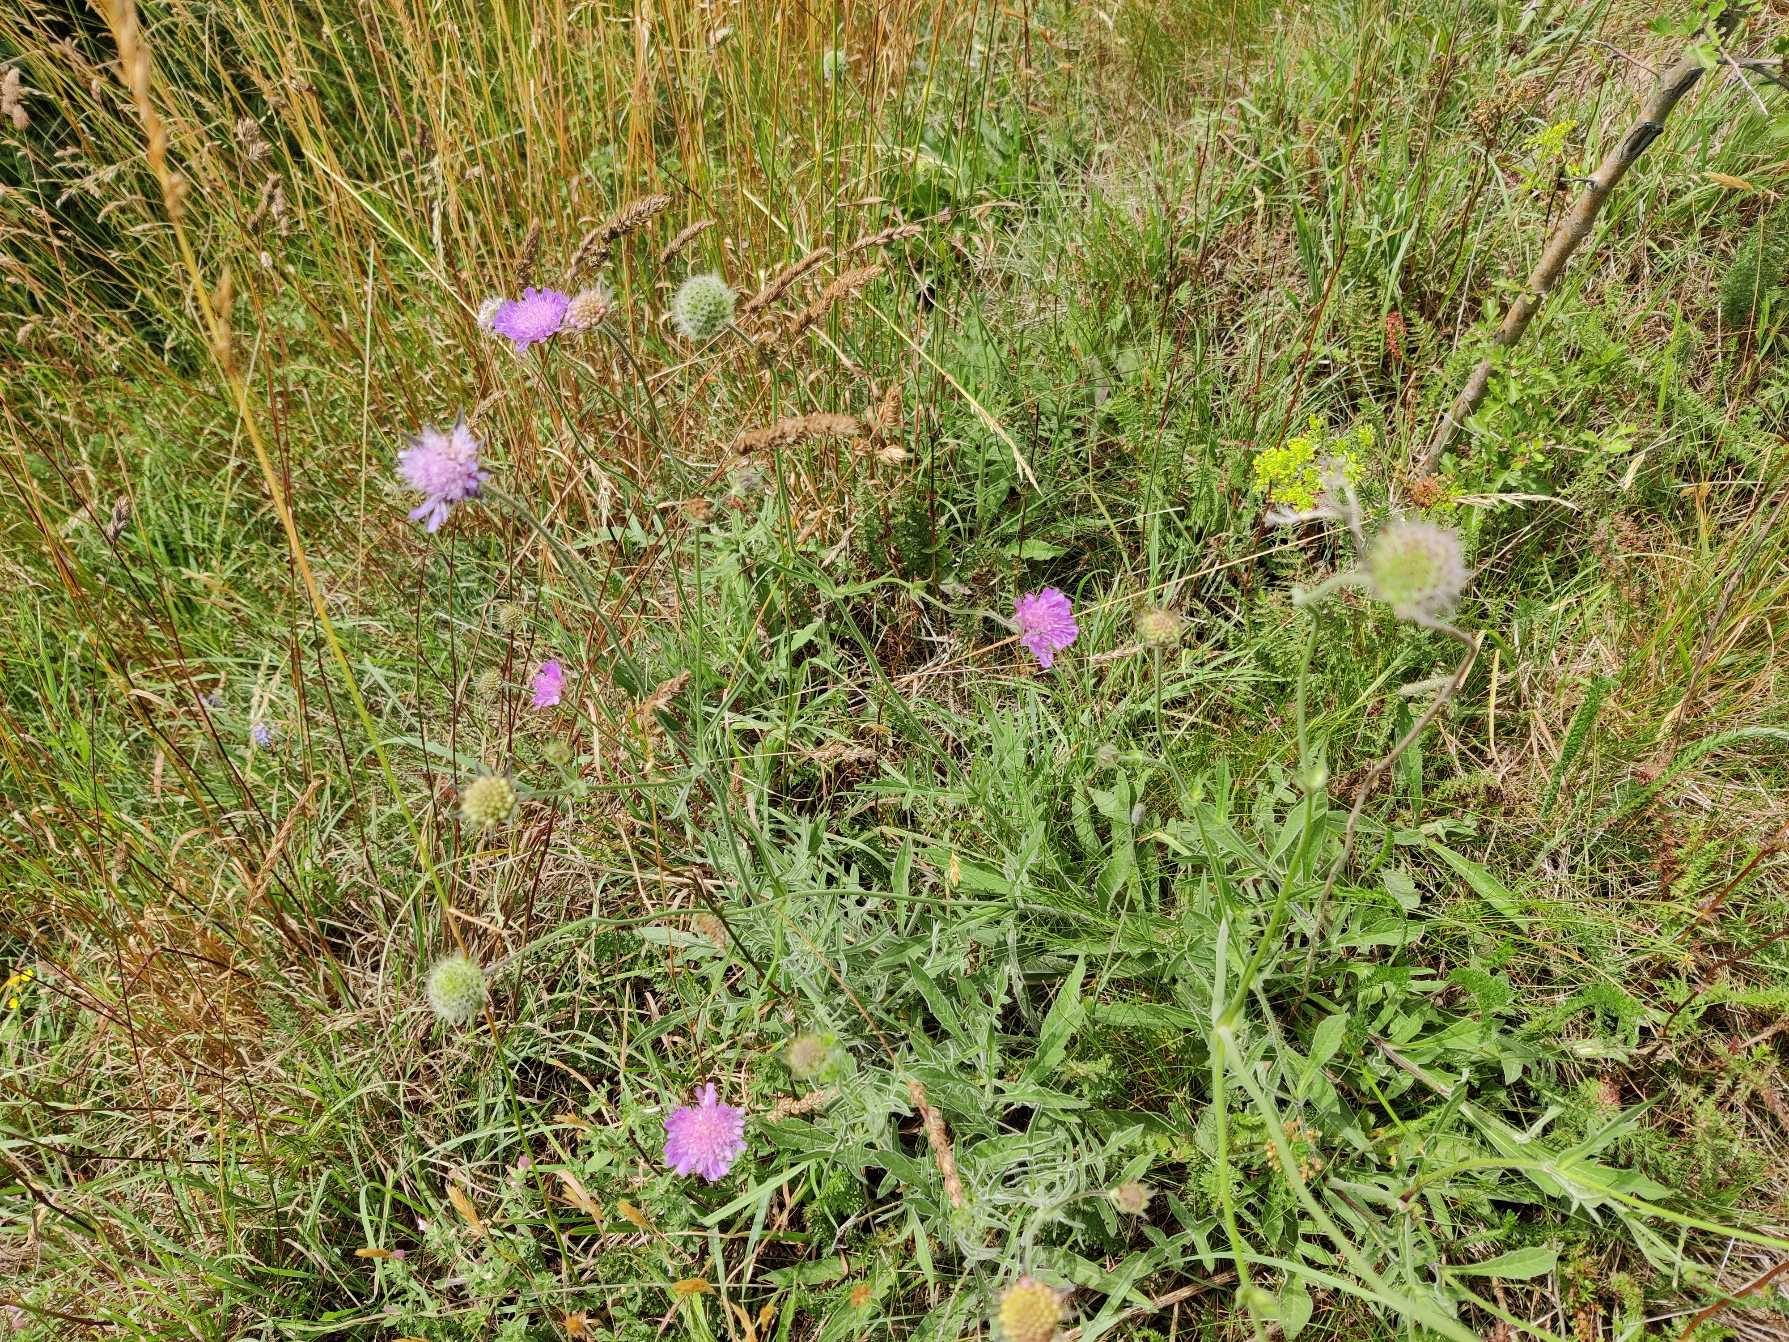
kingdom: Plantae
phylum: Tracheophyta
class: Magnoliopsida
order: Dipsacales
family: Caprifoliaceae
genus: Knautia
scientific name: Knautia arvensis
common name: Blåhat
